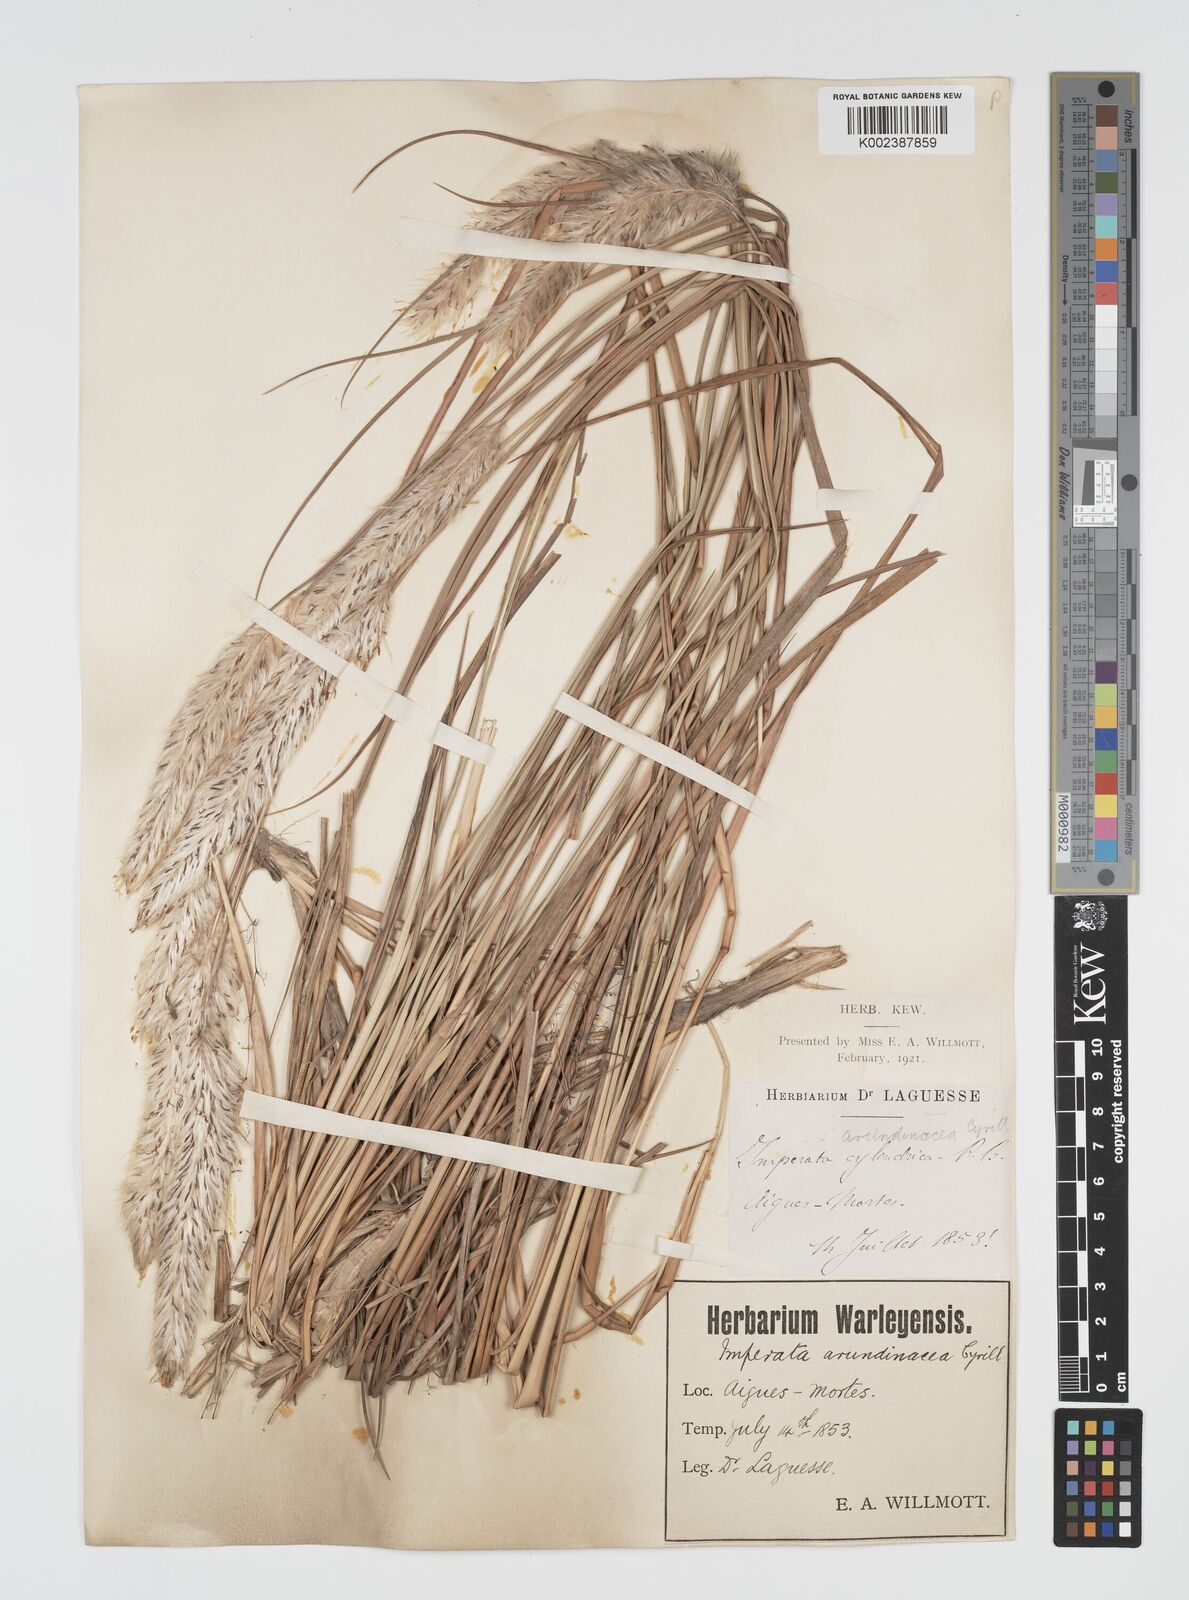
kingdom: Plantae
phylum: Tracheophyta
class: Liliopsida
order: Poales
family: Poaceae
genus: Imperata
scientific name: Imperata cylindrica
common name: Cogongrass
